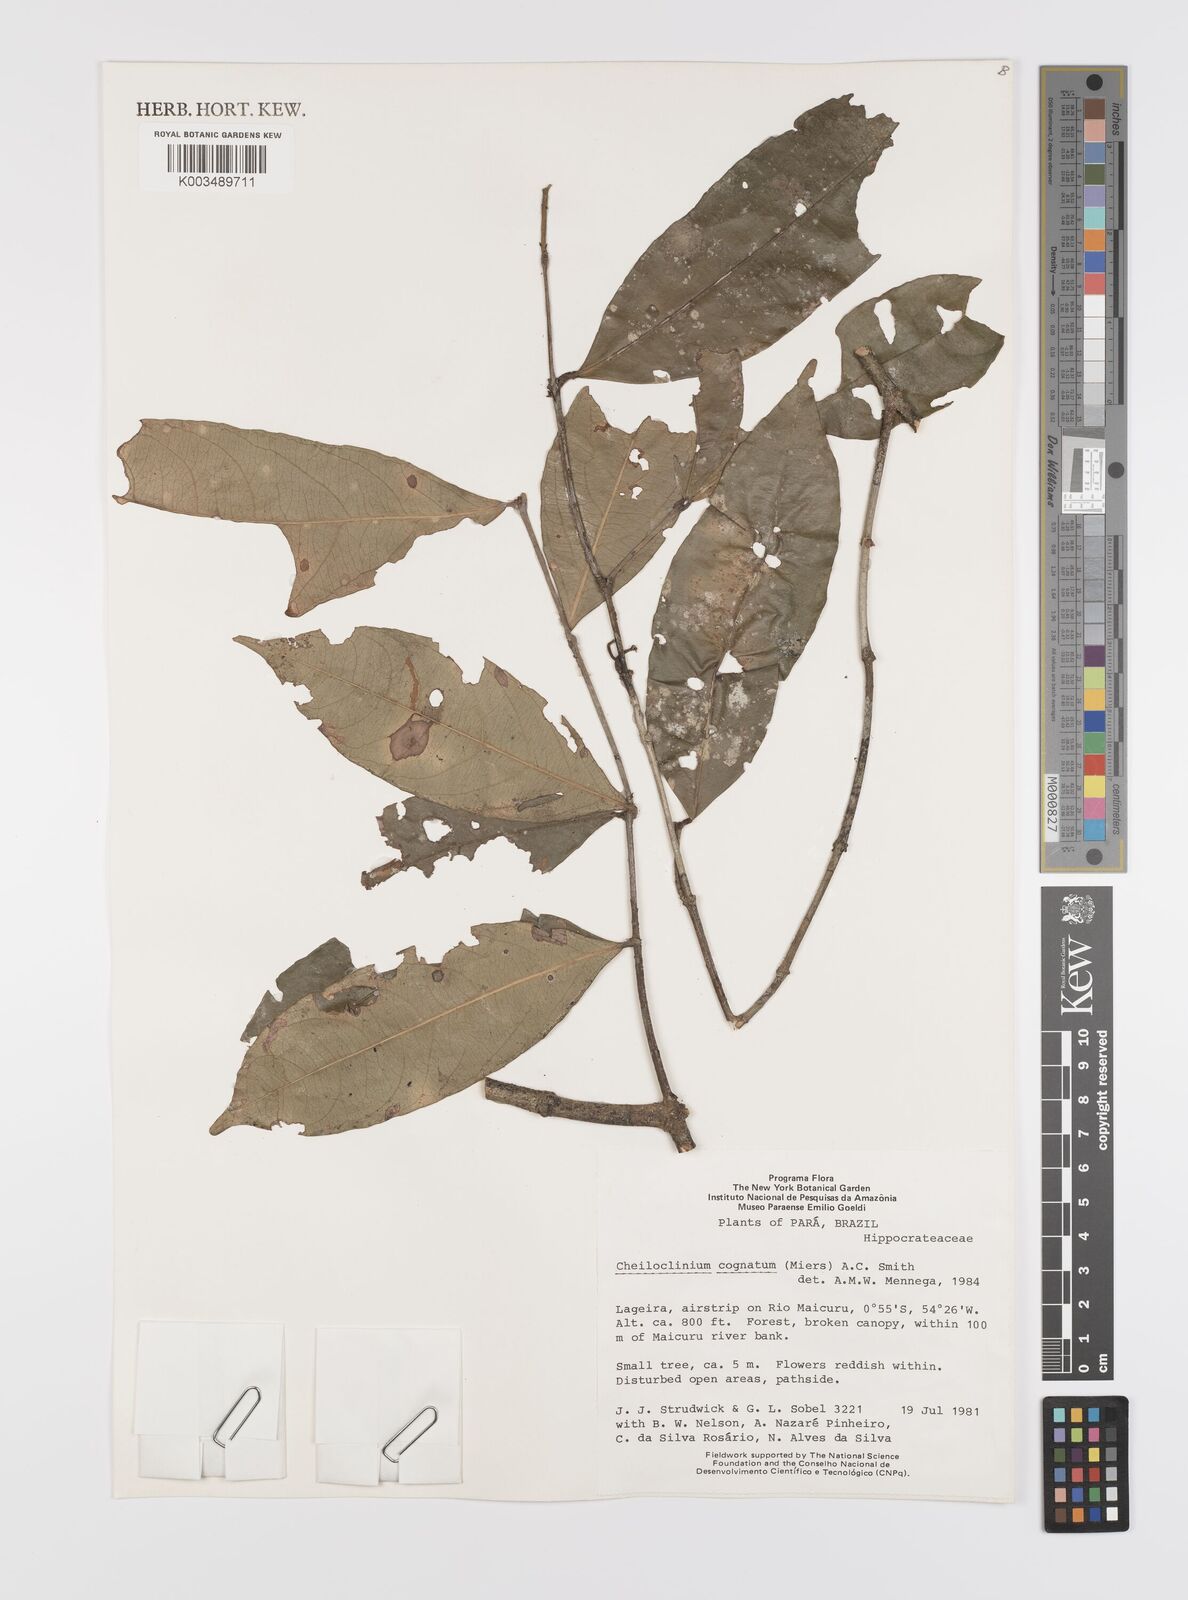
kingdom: Plantae
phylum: Tracheophyta
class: Magnoliopsida
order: Celastrales
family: Celastraceae
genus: Cheiloclinium
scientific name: Cheiloclinium cognatum
